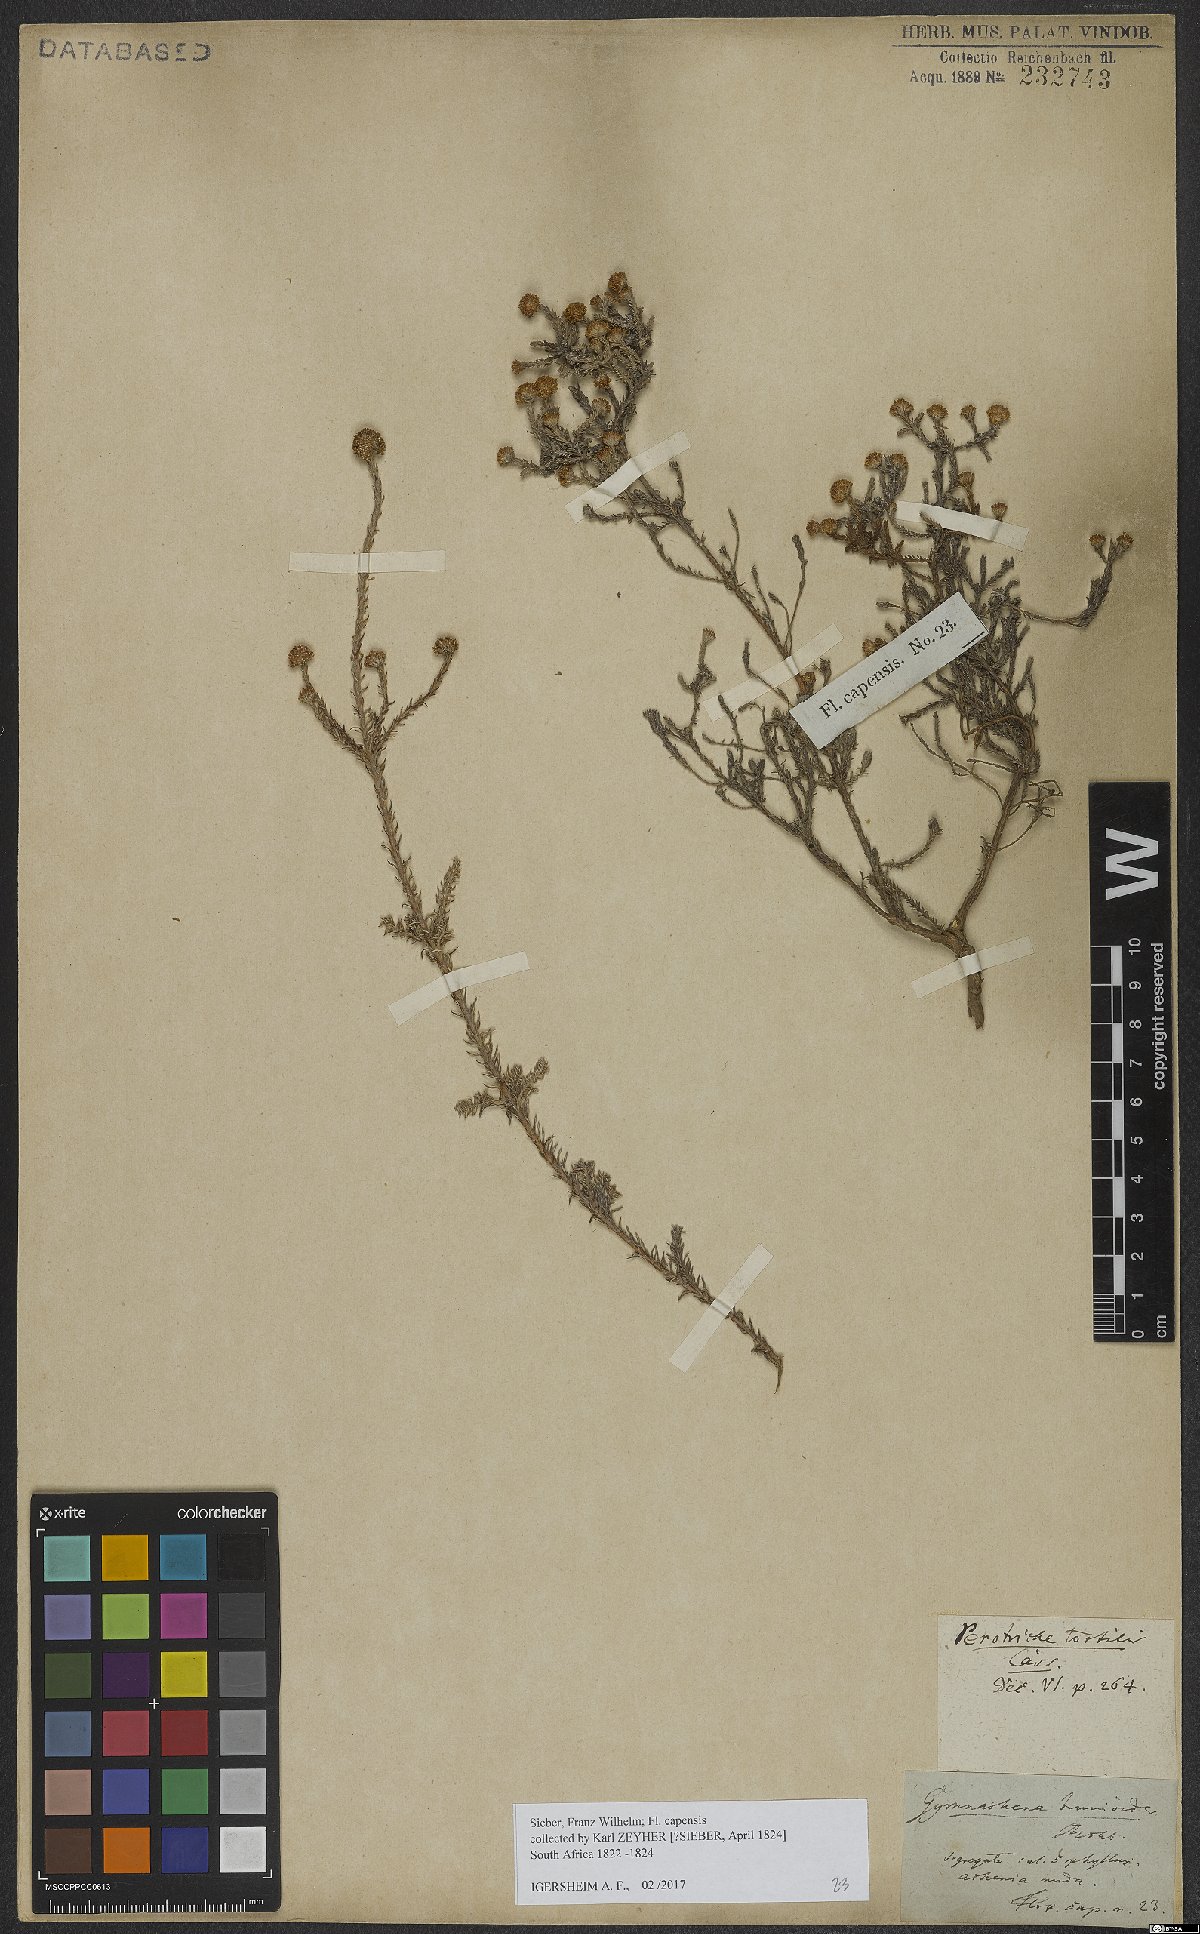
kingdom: Plantae
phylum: Tracheophyta
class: Magnoliopsida
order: Asterales
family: Asteraceae
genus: Stoebe
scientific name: Stoebe capitata
